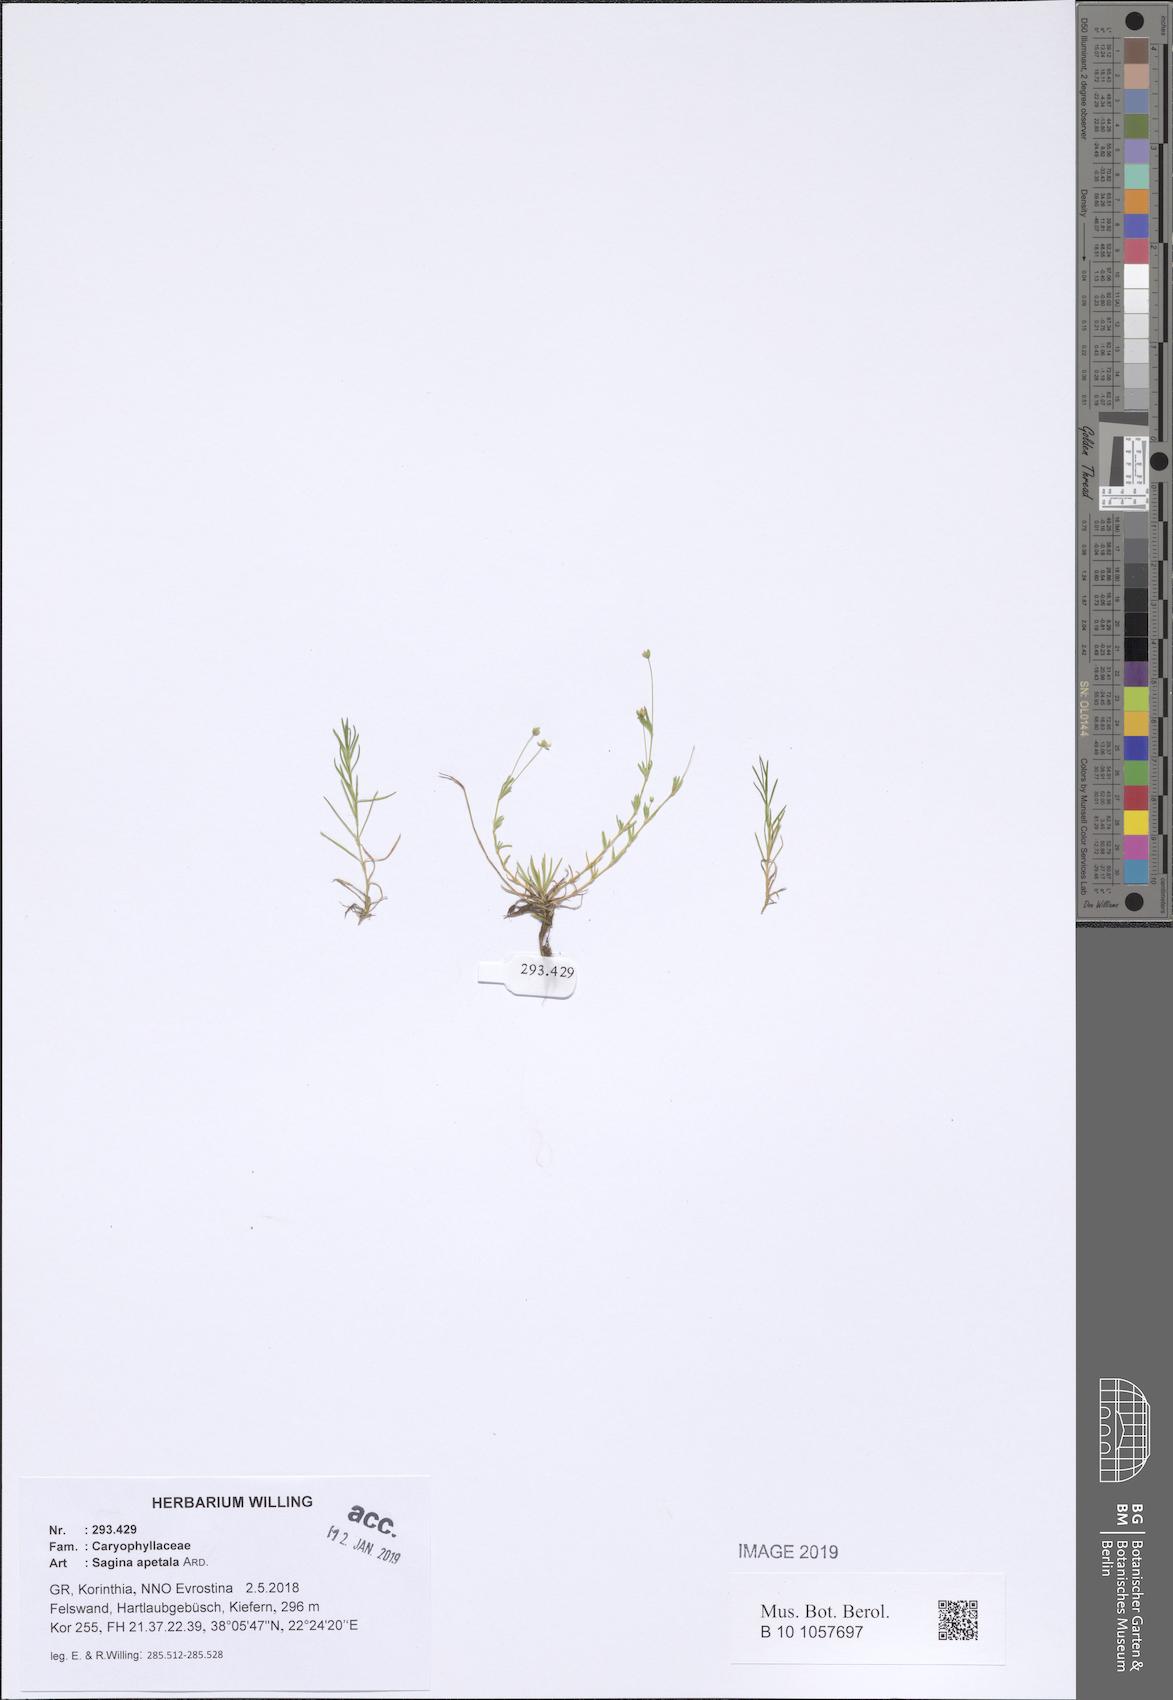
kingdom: Plantae
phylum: Tracheophyta
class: Magnoliopsida
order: Caryophyllales
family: Caryophyllaceae
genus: Sagina
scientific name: Sagina apetala
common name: Annual pearlwort
